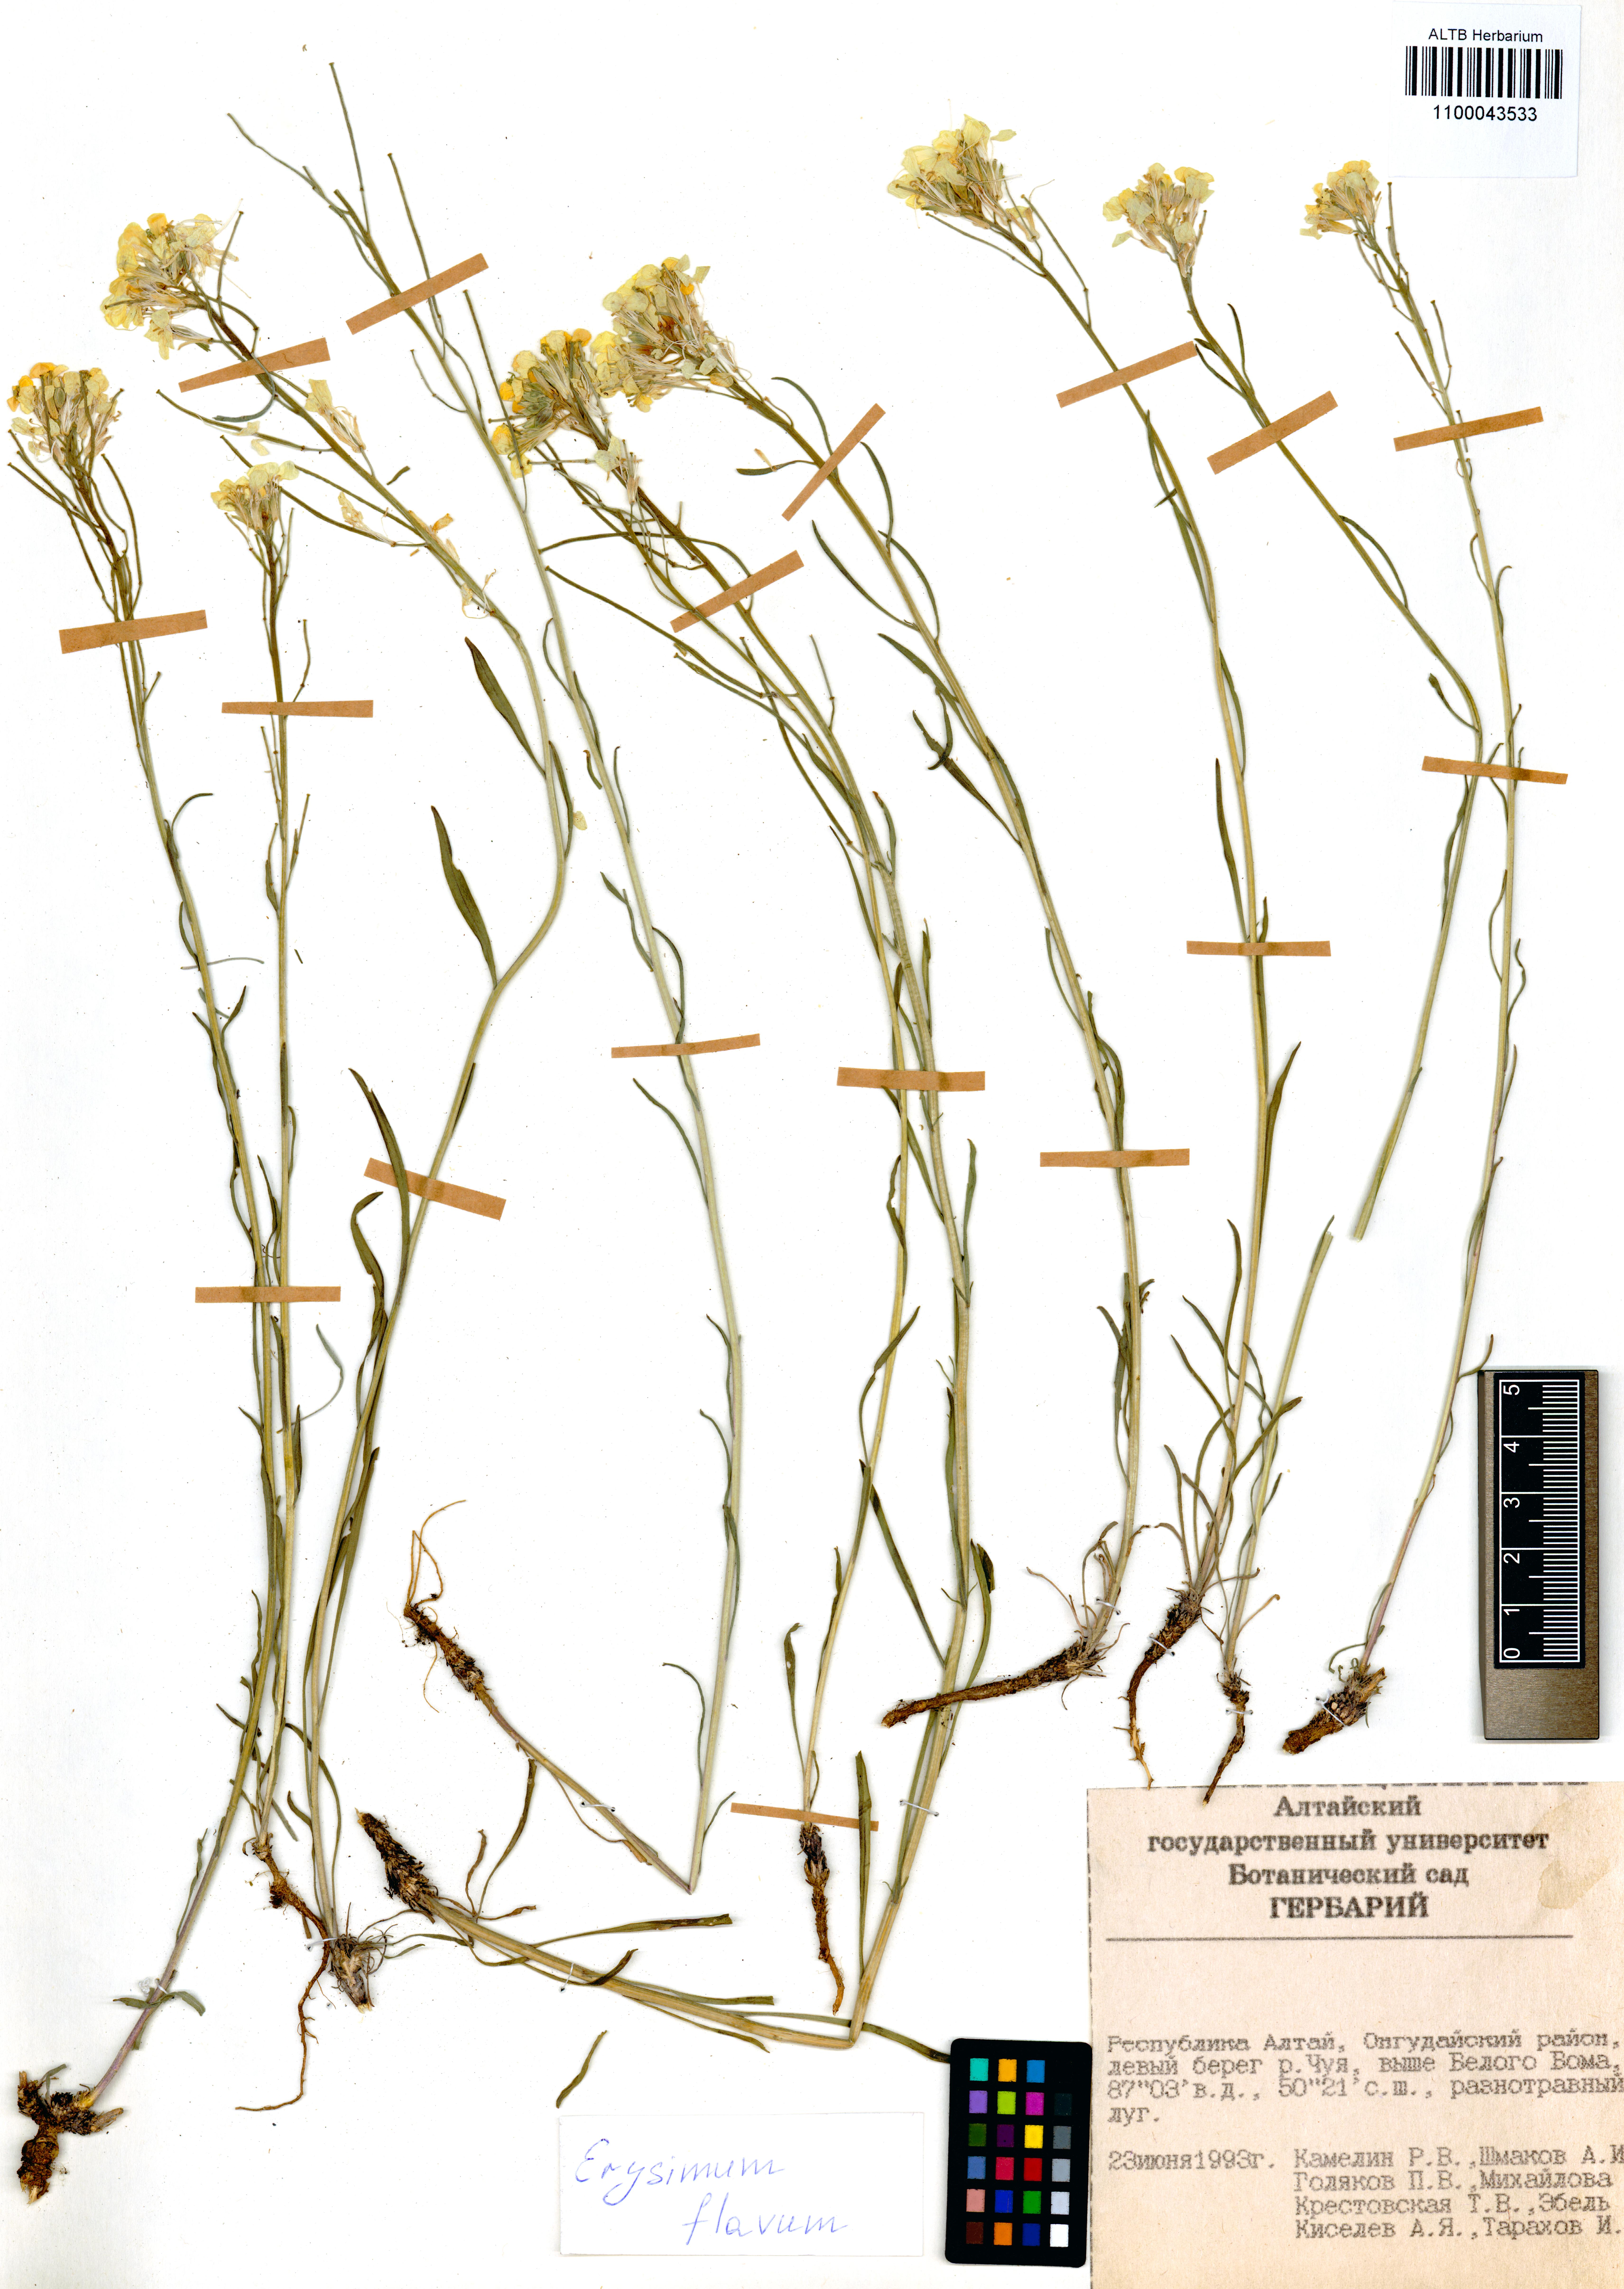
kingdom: Plantae
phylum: Tracheophyta
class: Magnoliopsida
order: Brassicales
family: Brassicaceae
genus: Erysimum
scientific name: Erysimum flavum
